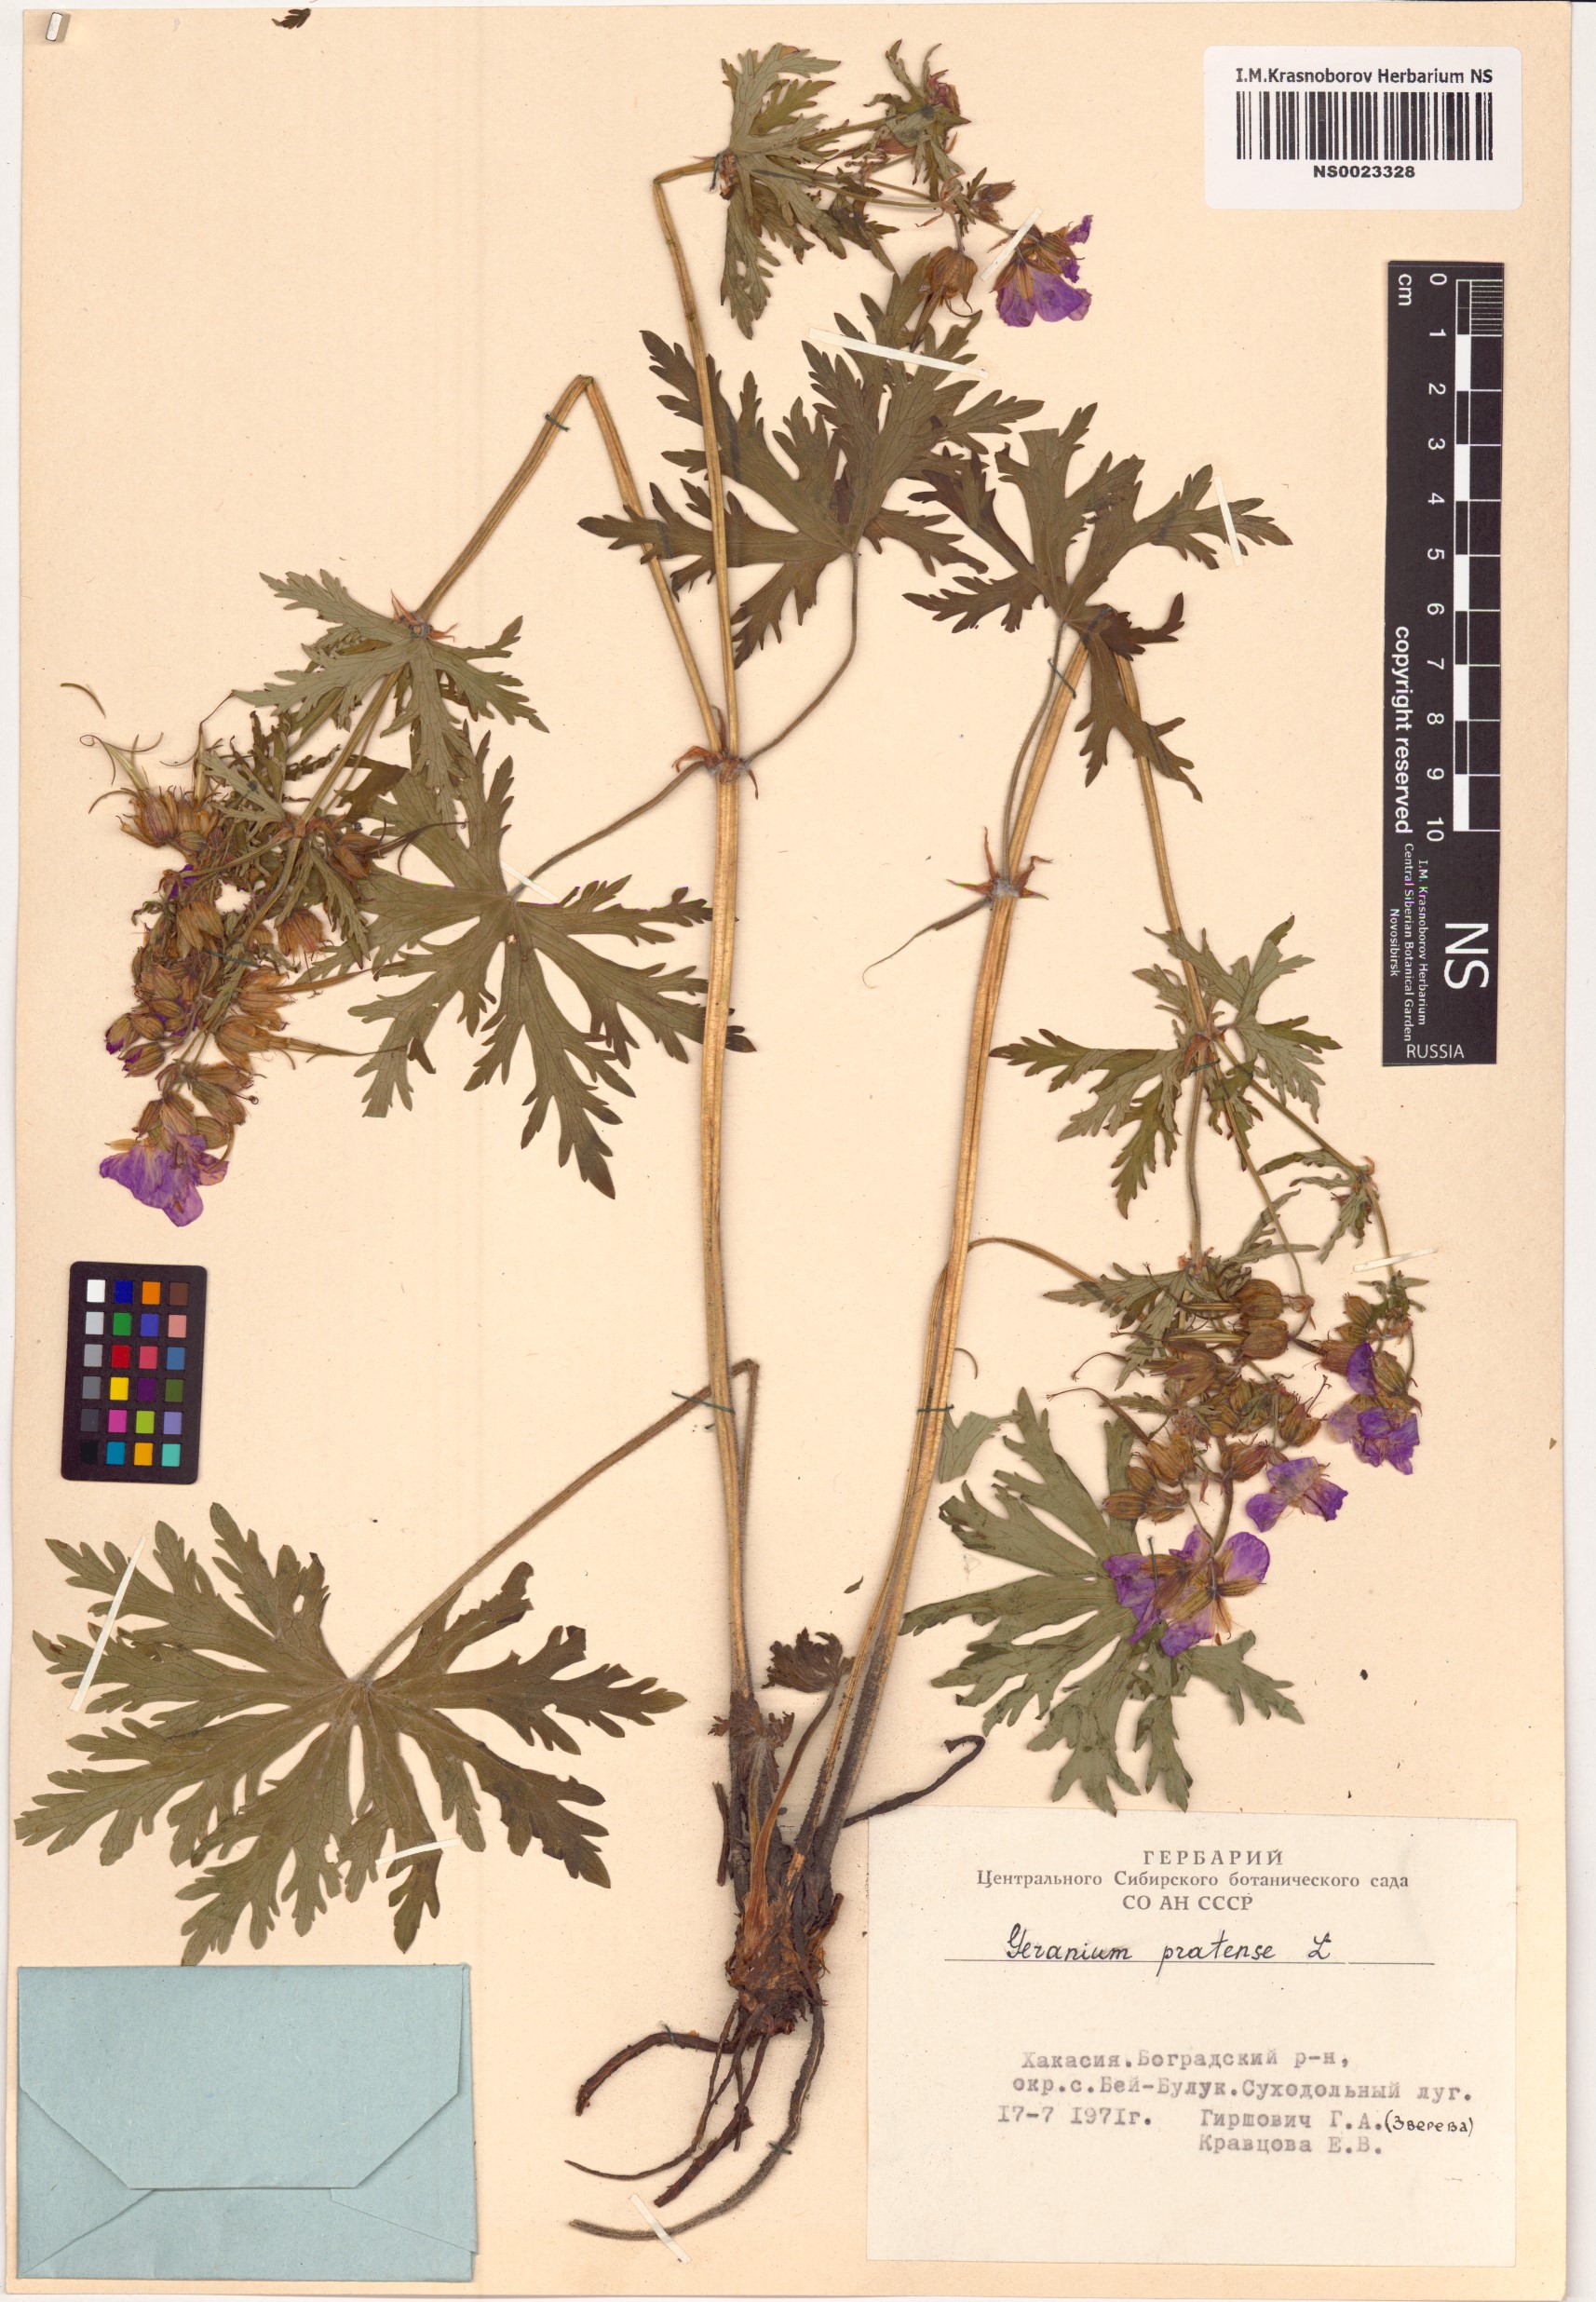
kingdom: Plantae
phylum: Tracheophyta
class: Magnoliopsida
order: Geraniales
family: Geraniaceae
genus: Geranium
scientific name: Geranium pratense
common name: Meadow crane's-bill
